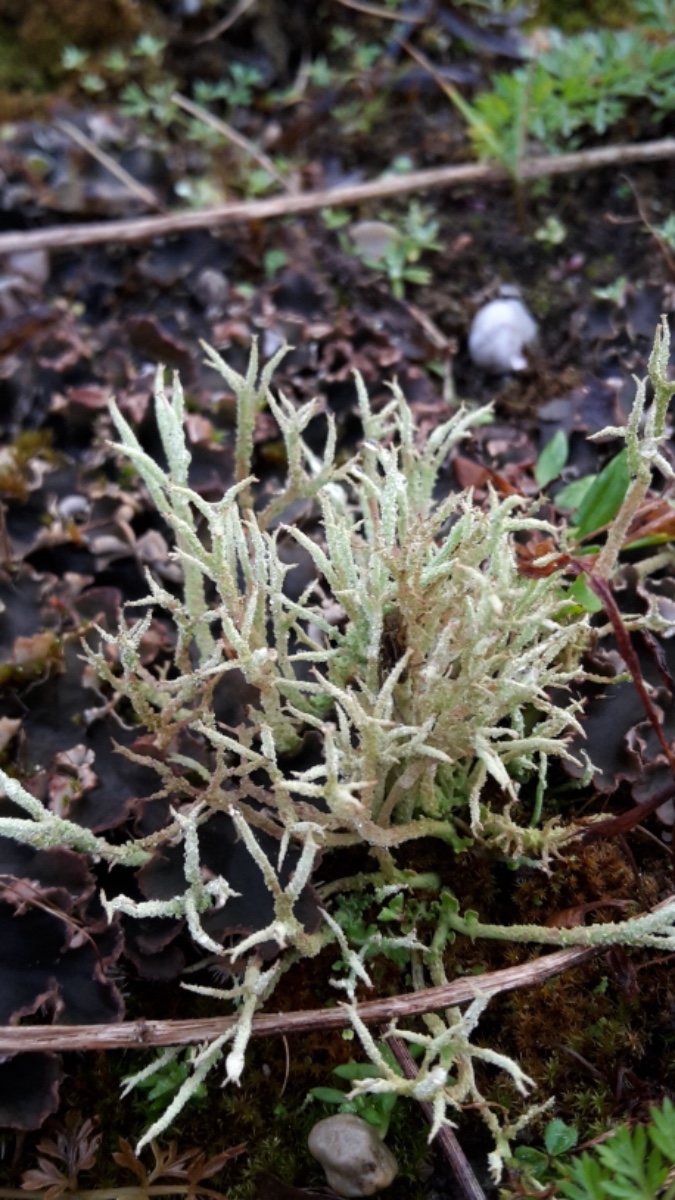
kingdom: Fungi
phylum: Ascomycota
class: Lecanoromycetes
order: Lecanorales
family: Cladoniaceae
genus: Cladonia
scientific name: Cladonia scabriuscula
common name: ru bægerlav
